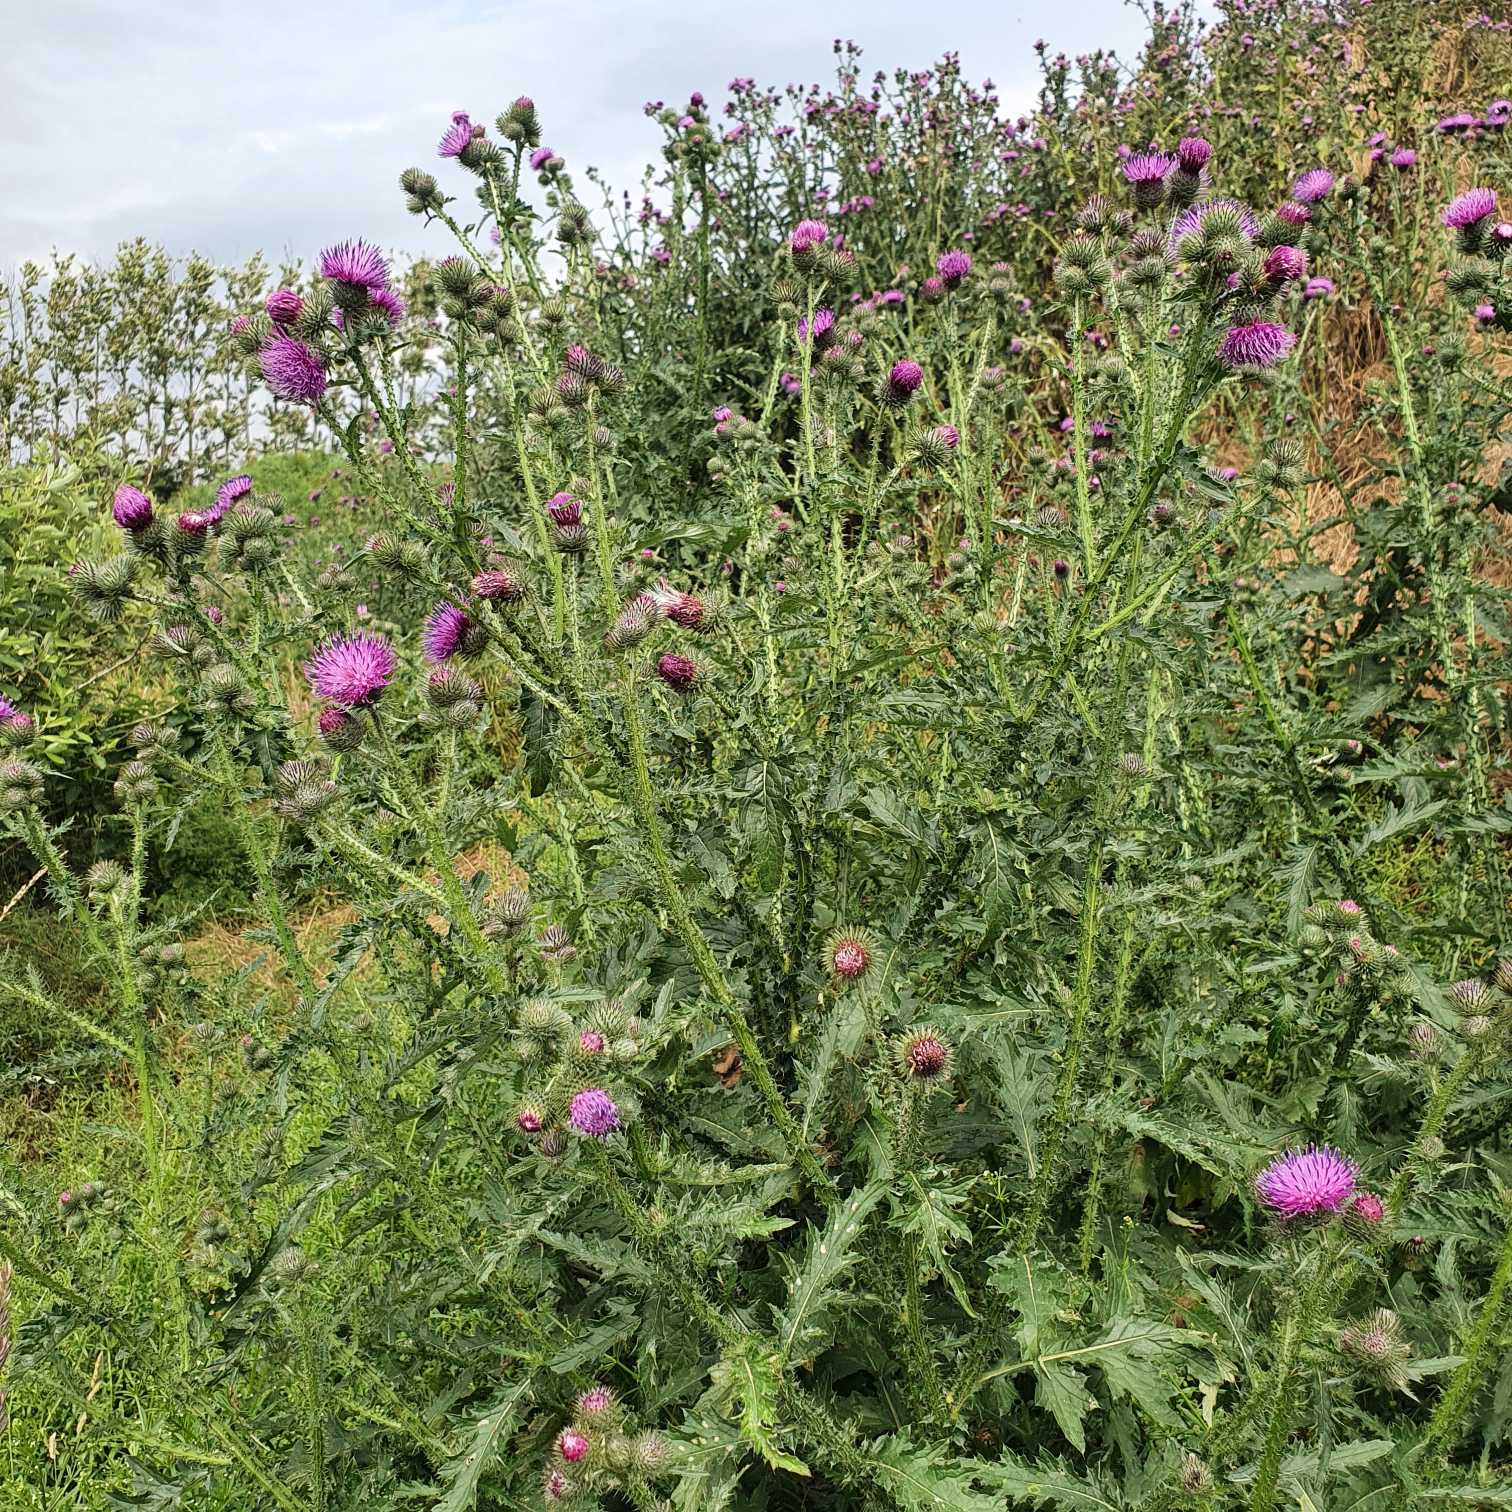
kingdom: Plantae
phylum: Tracheophyta
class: Magnoliopsida
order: Asterales
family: Asteraceae
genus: Carduus
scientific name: Carduus crispus
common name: Kruset tidsel
